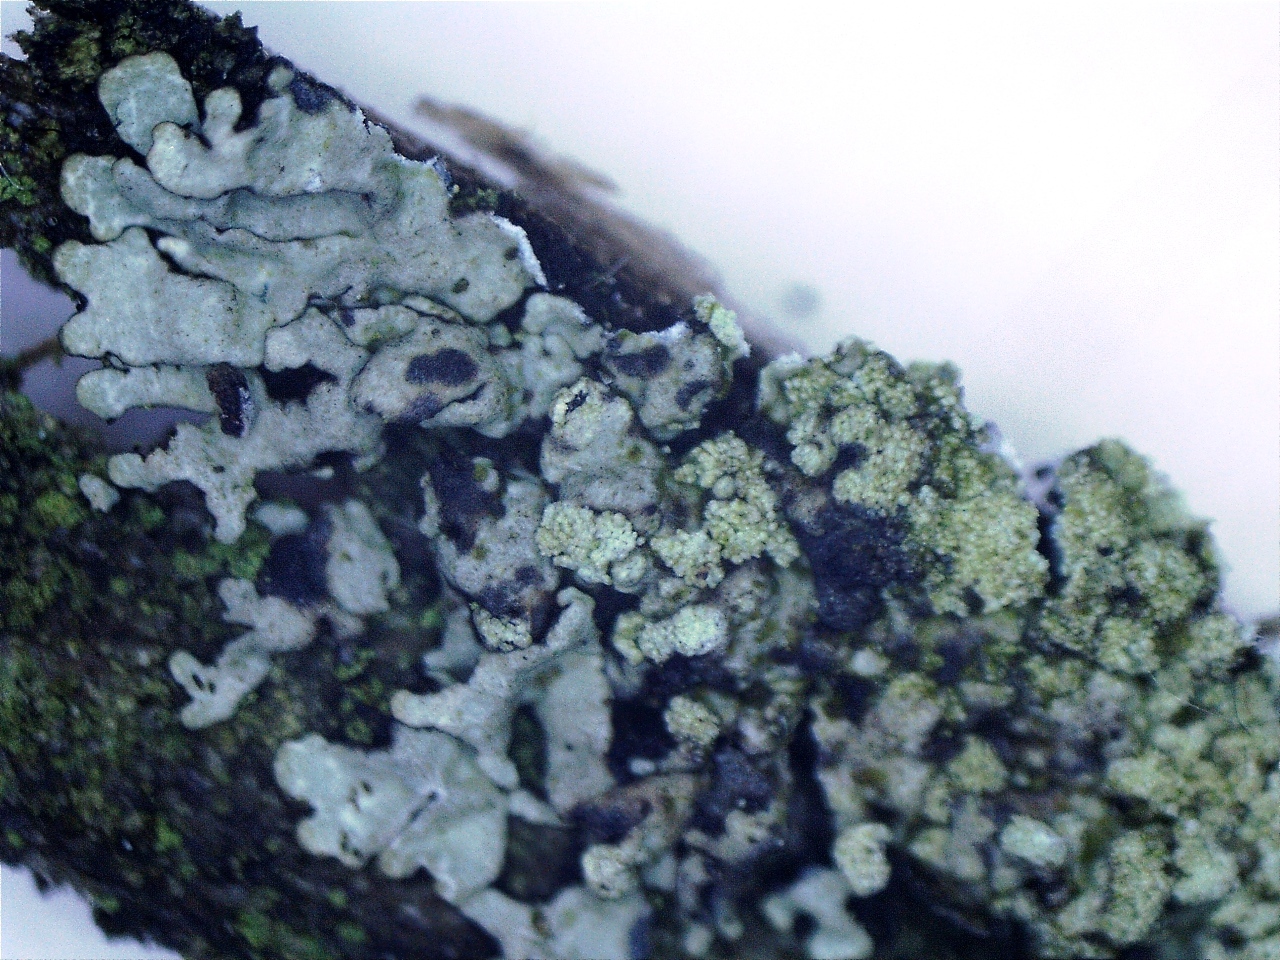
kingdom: Fungi
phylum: Ascomycota
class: Lecanoromycetes
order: Caliciales
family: Physciaceae
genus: Physcia
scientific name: Physcia caesia
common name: blågrå rosetlav
